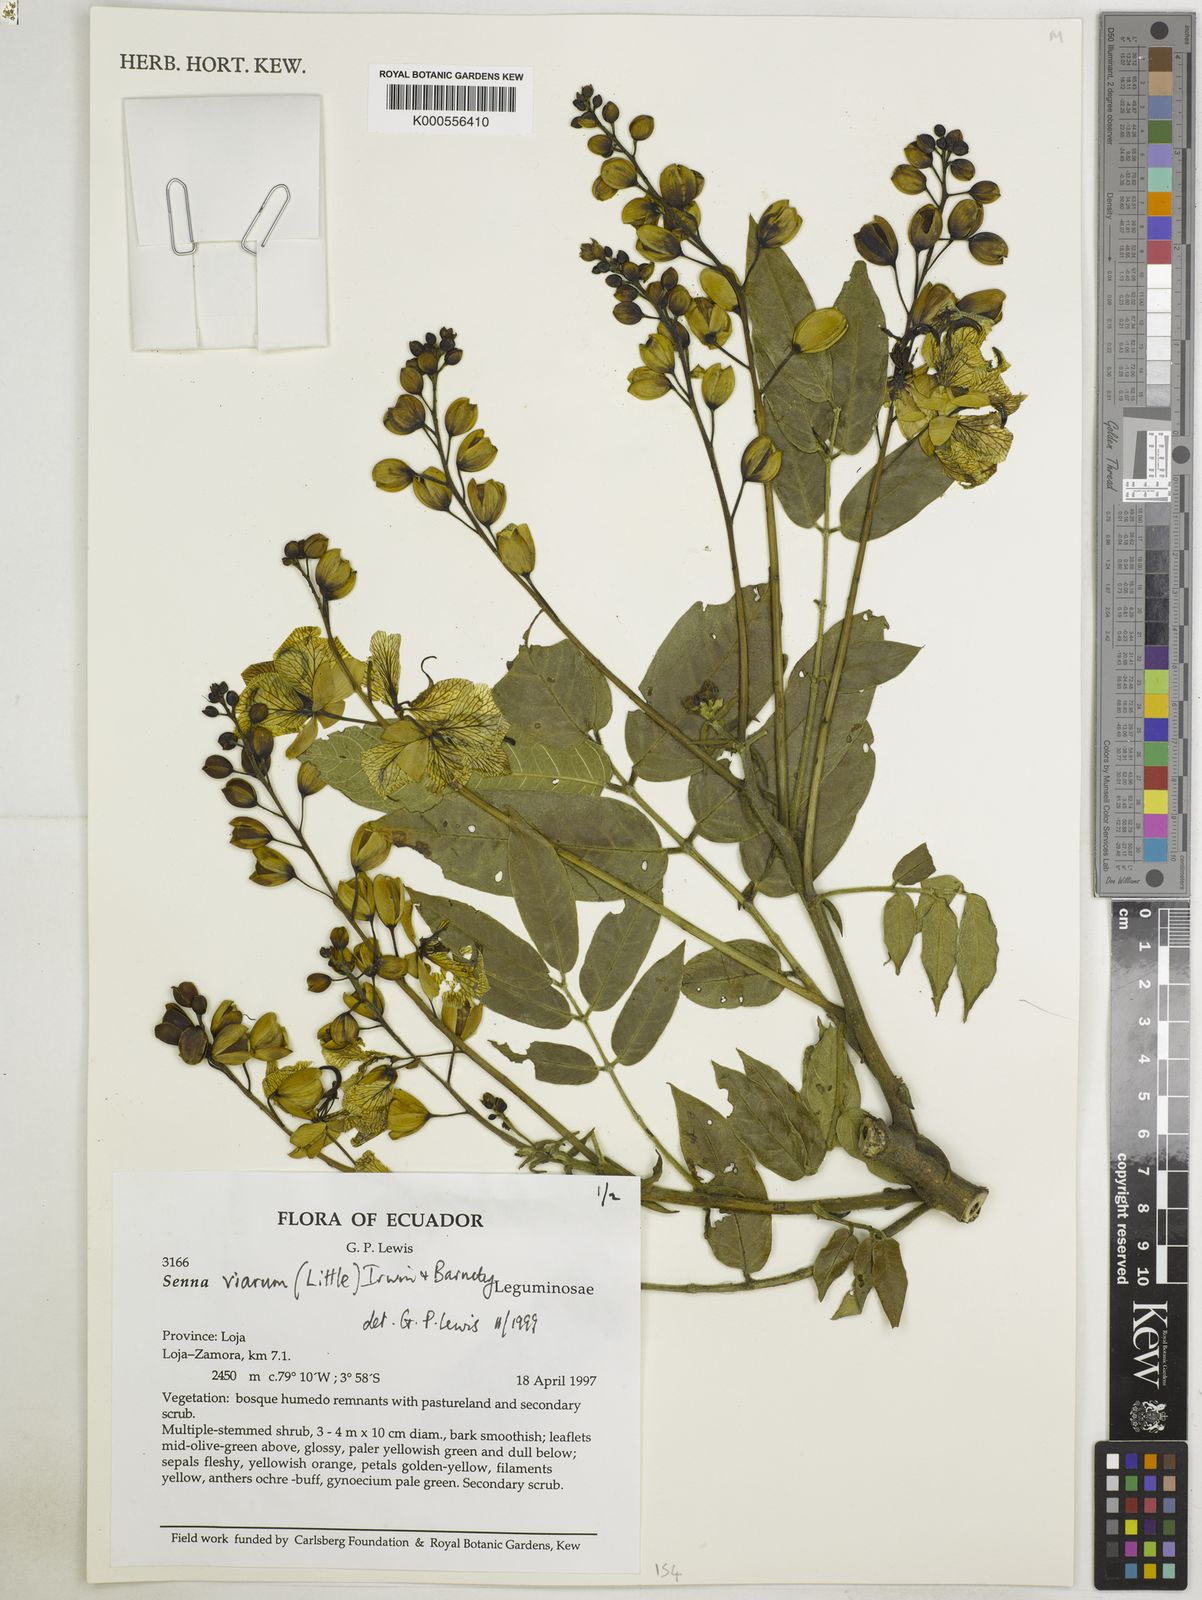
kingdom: Plantae
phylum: Tracheophyta
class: Magnoliopsida
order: Fabales
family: Fabaceae
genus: Senna
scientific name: Senna viarum
